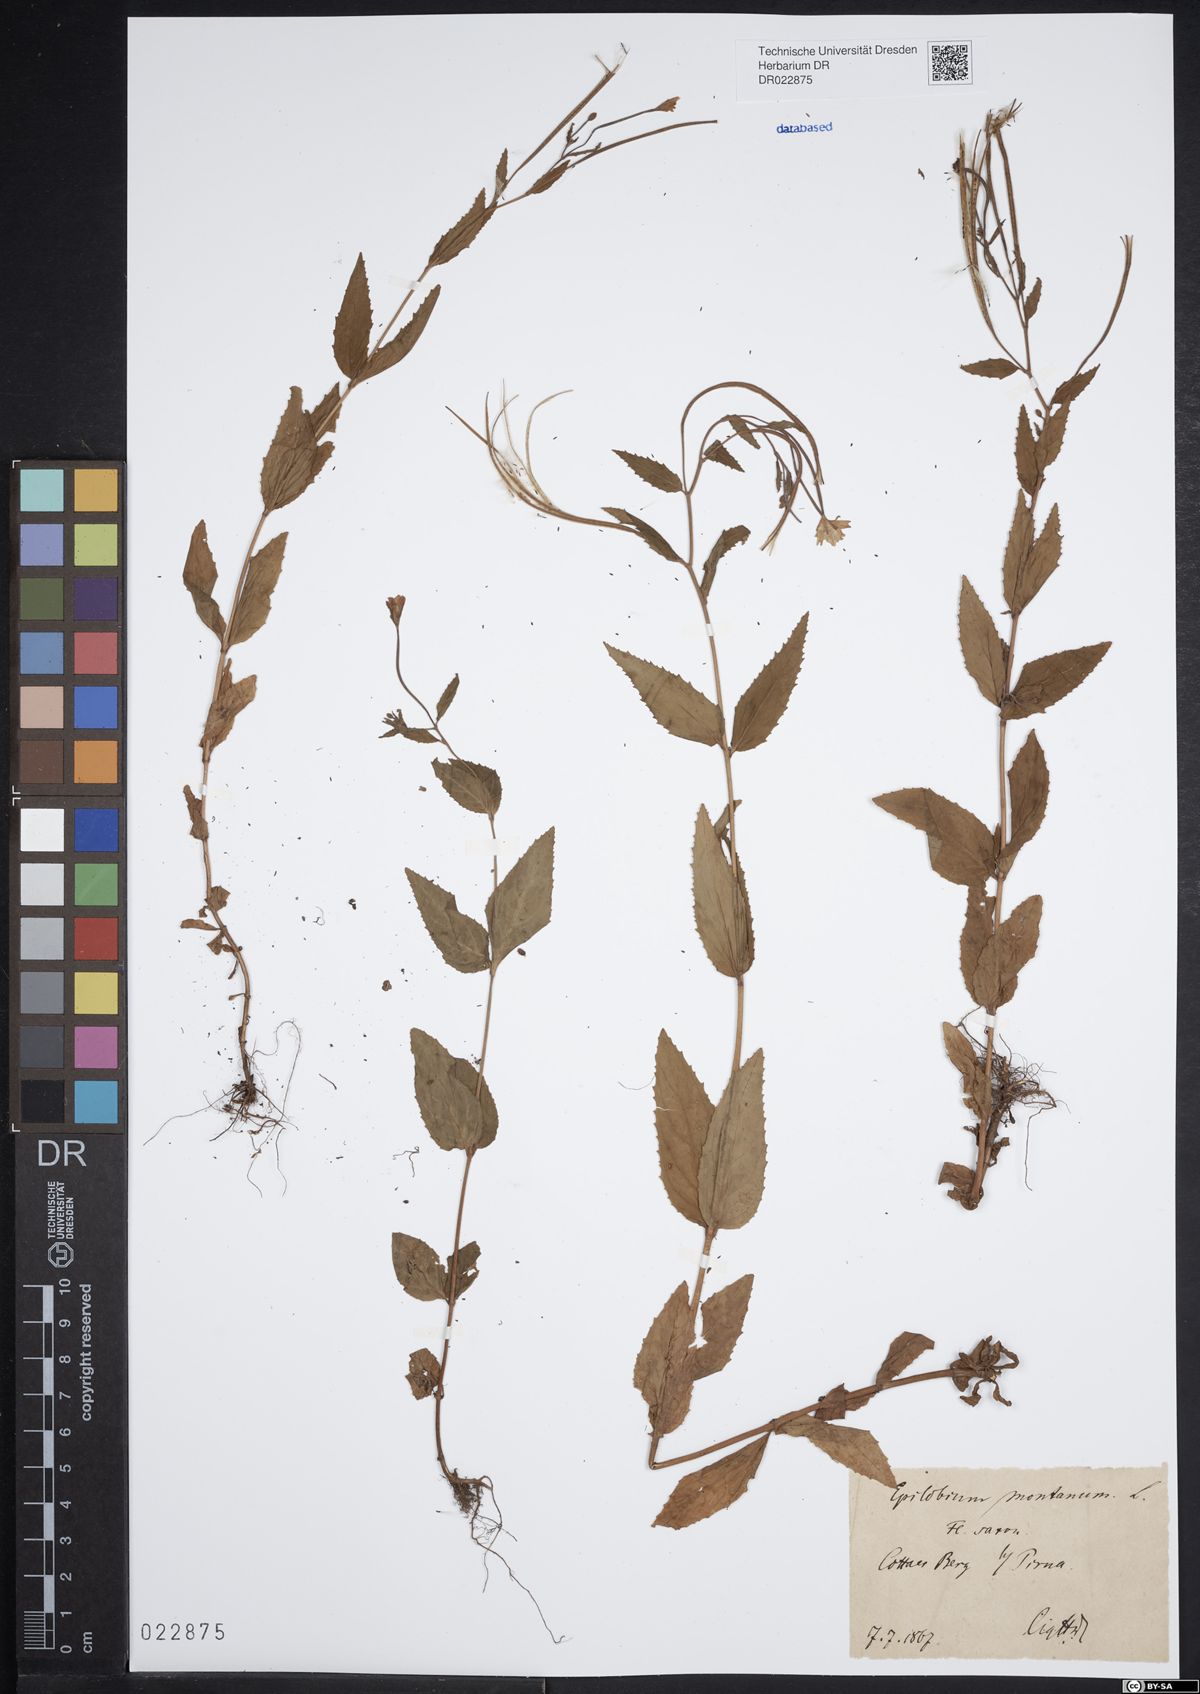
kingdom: Plantae
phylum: Tracheophyta
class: Magnoliopsida
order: Myrtales
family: Onagraceae
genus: Epilobium
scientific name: Epilobium montanum
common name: Broad-leaved willowherb
